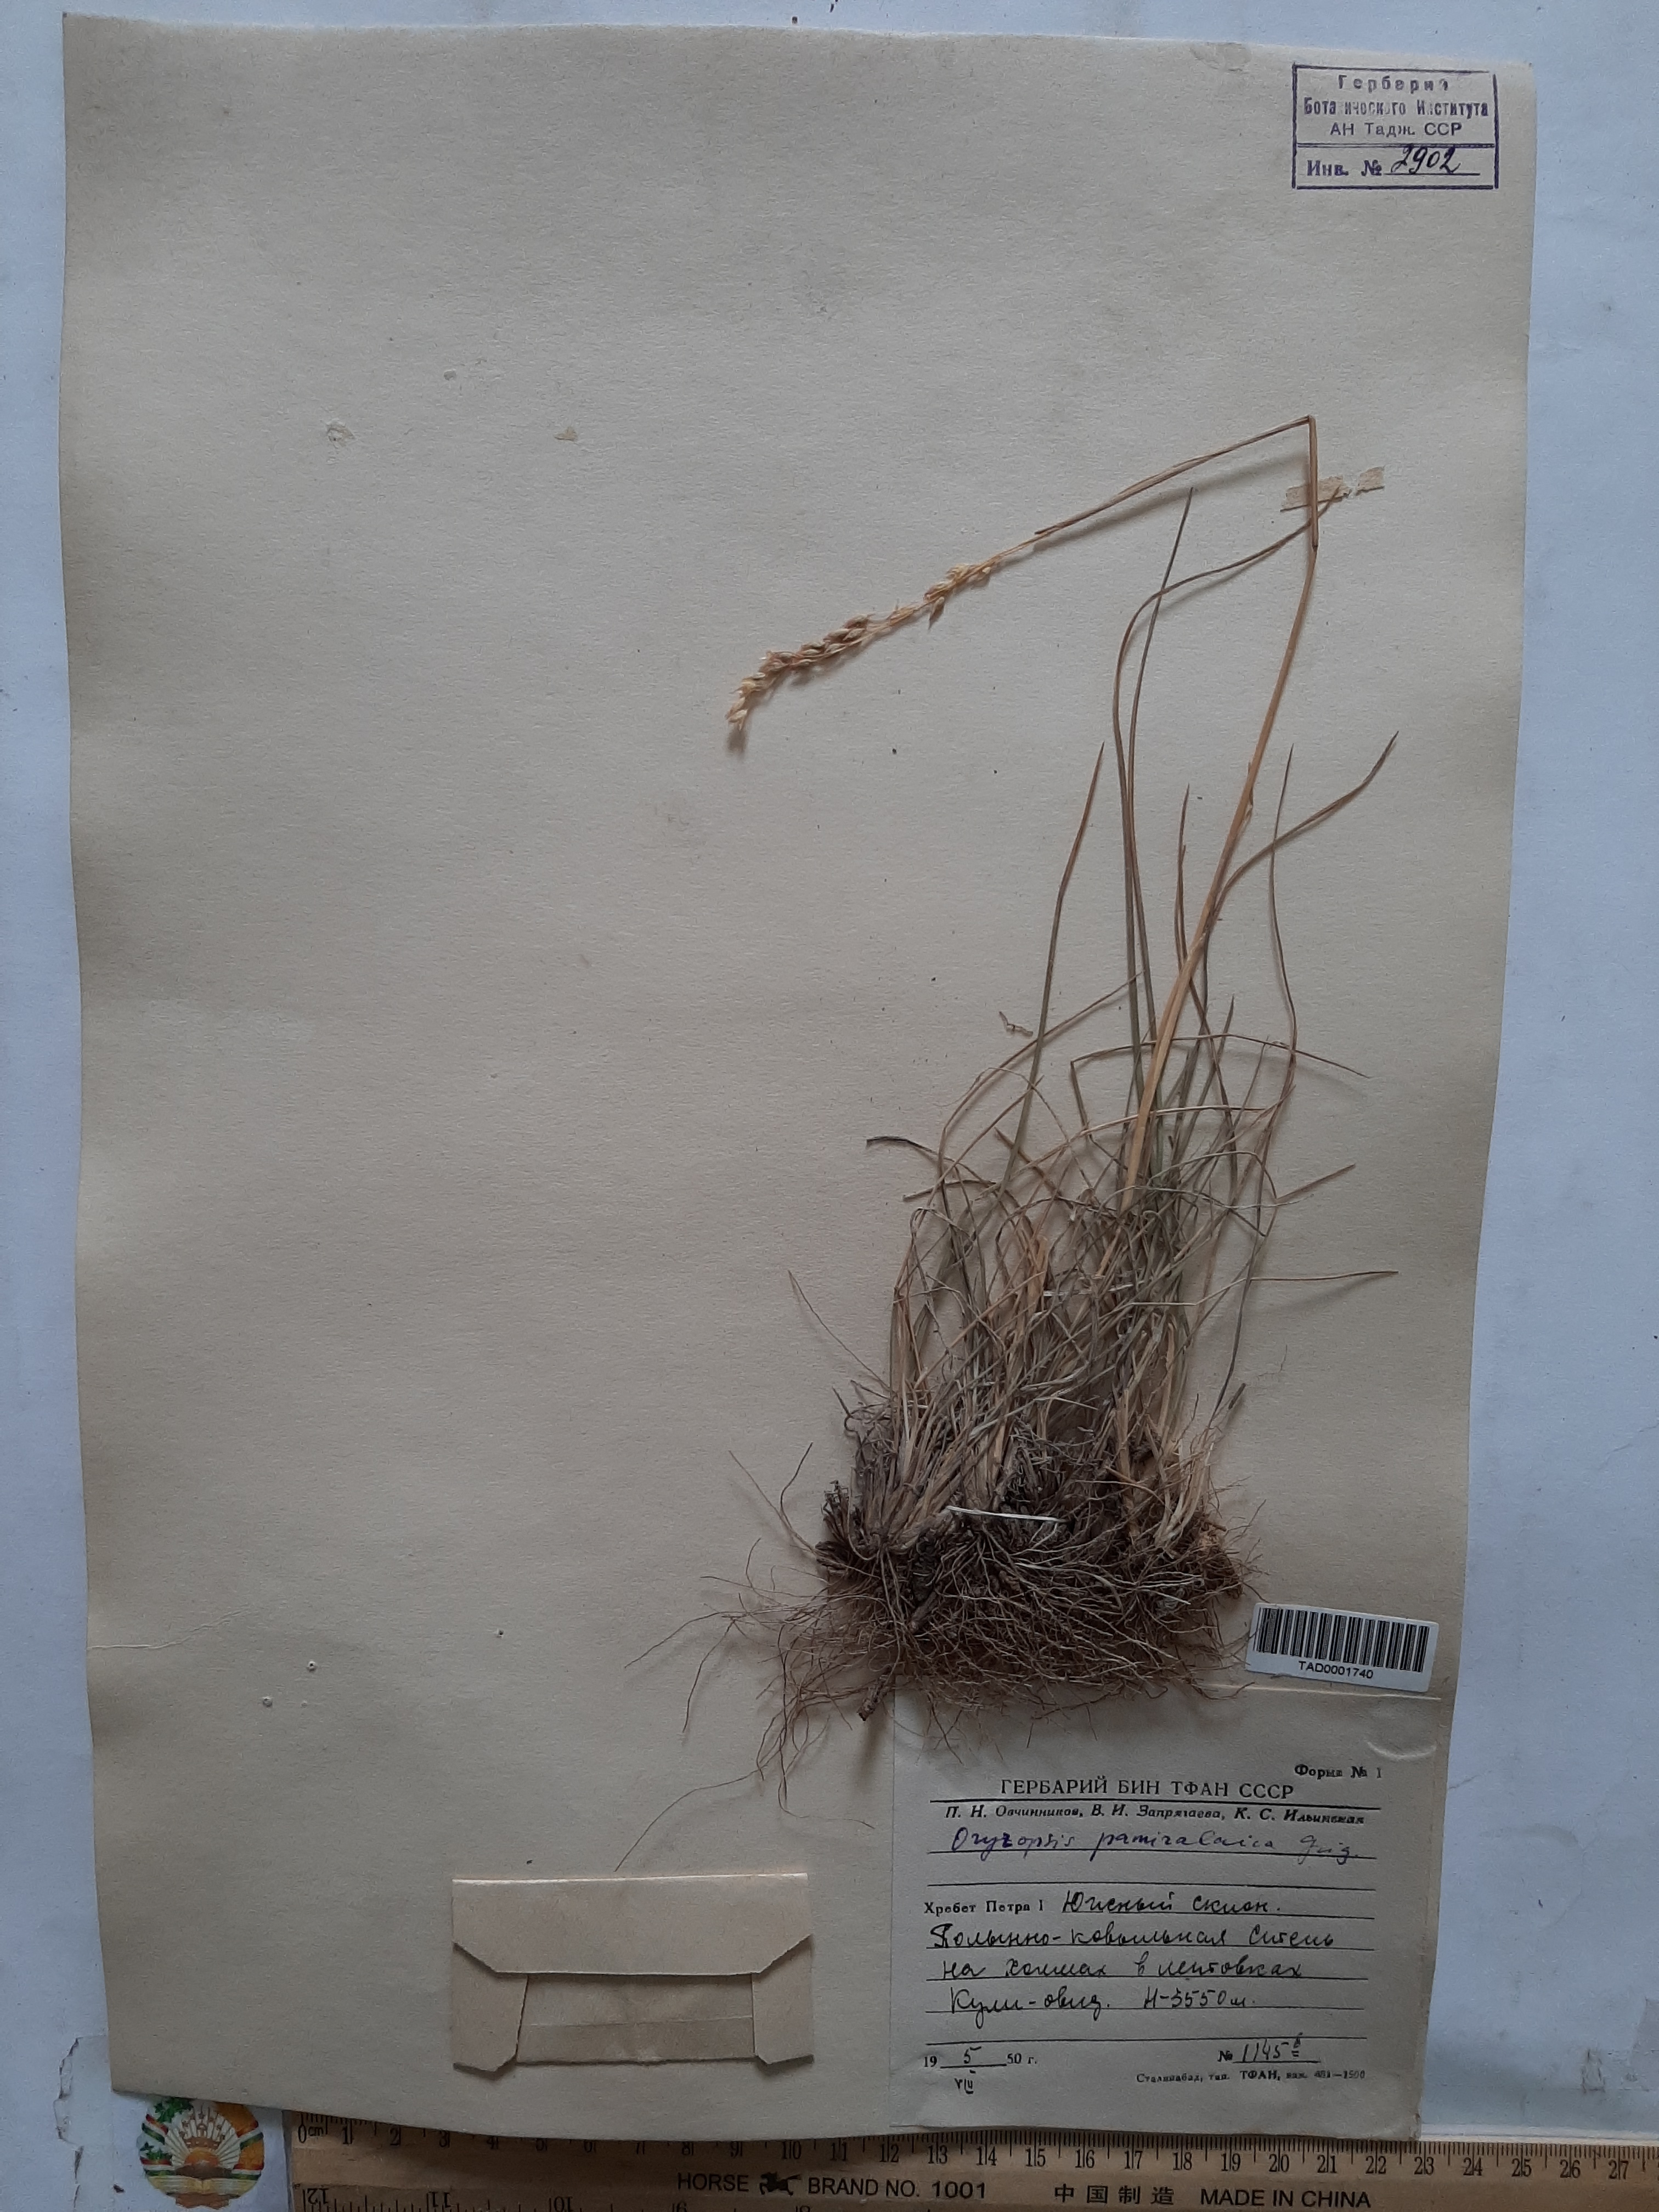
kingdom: Plantae
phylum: Tracheophyta
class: Liliopsida
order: Poales
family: Poaceae
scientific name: Poaceae
